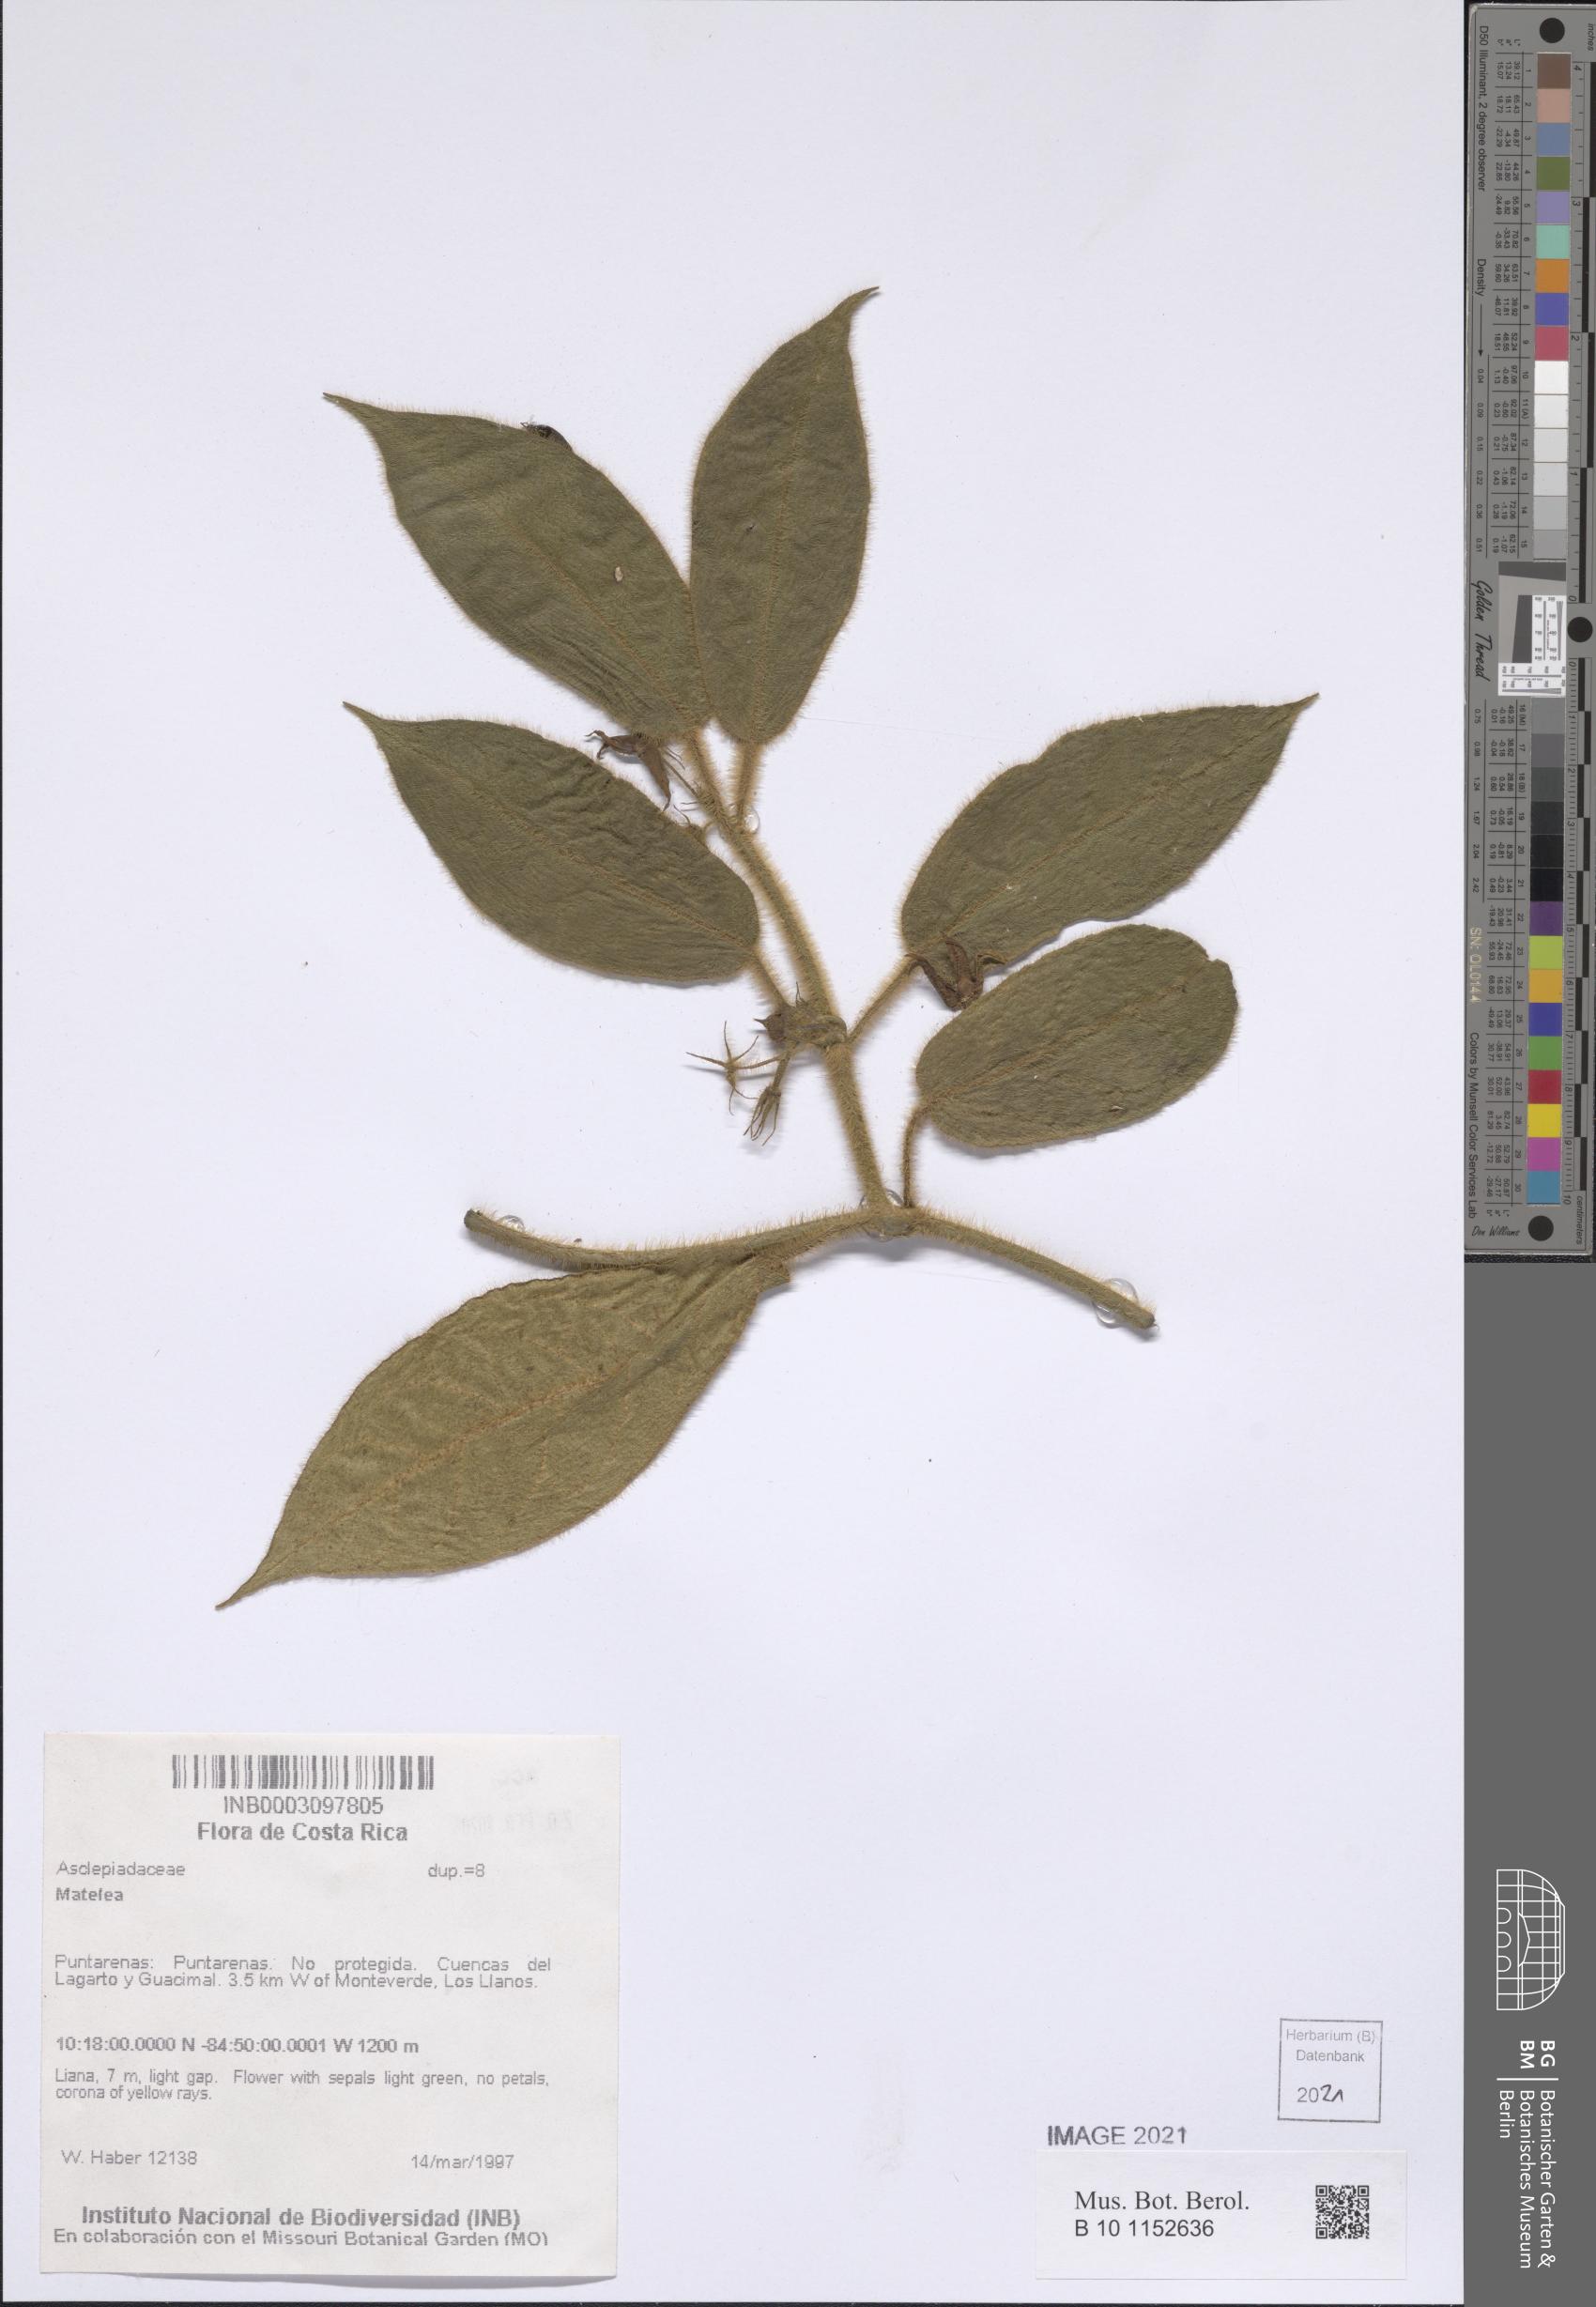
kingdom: Plantae
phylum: Tracheophyta
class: Magnoliopsida
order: Gentianales
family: Apocynaceae
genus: Gonolobus
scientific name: Gonolobus heterophyllus
